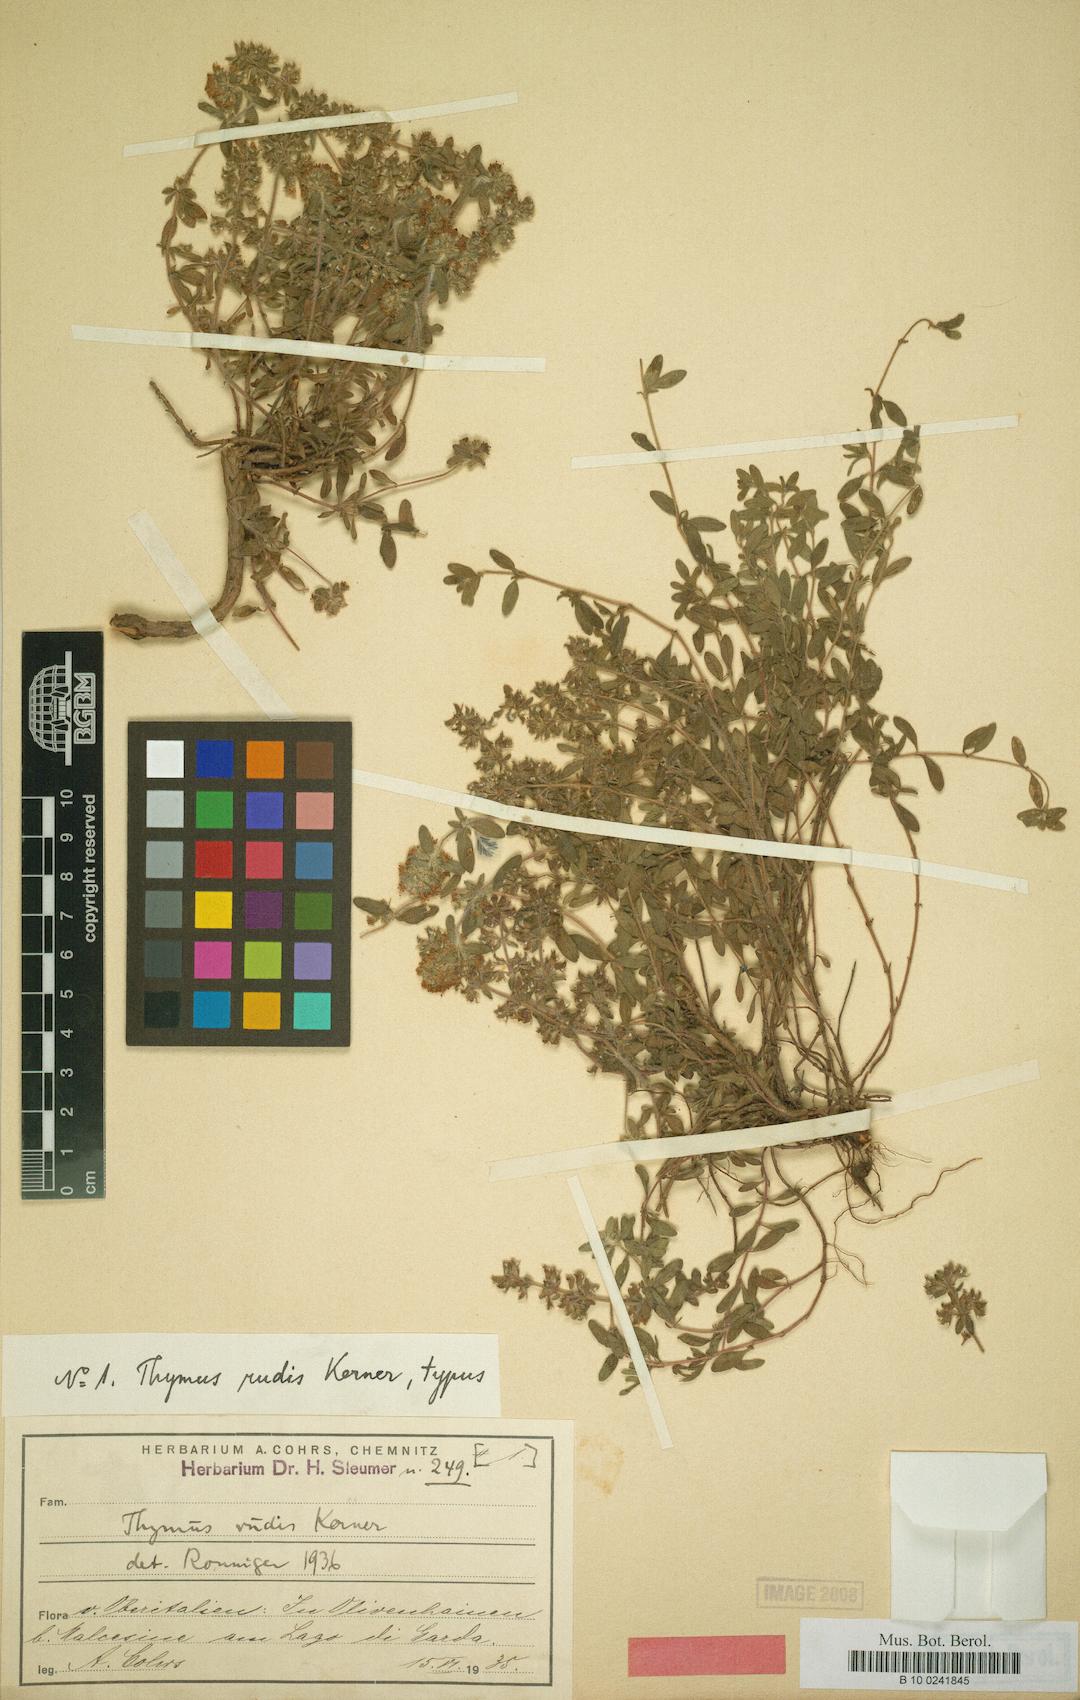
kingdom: Plantae
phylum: Tracheophyta
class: Magnoliopsida
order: Lamiales
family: Lamiaceae
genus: Thymus
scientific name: Thymus longicaulis
